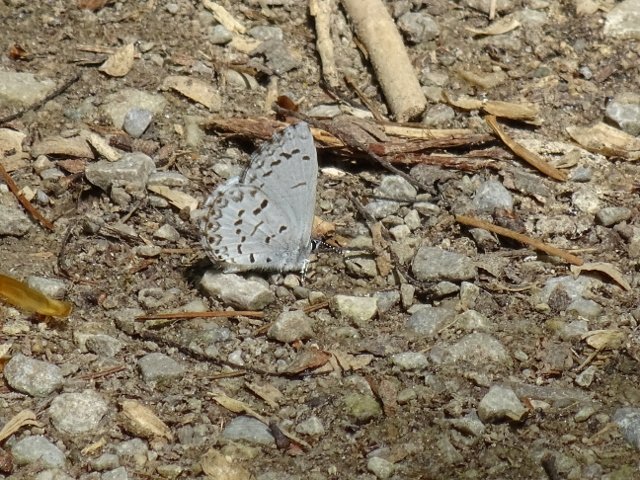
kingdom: Animalia
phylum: Arthropoda
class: Insecta
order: Lepidoptera
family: Lycaenidae
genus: Celastrina
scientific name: Celastrina
